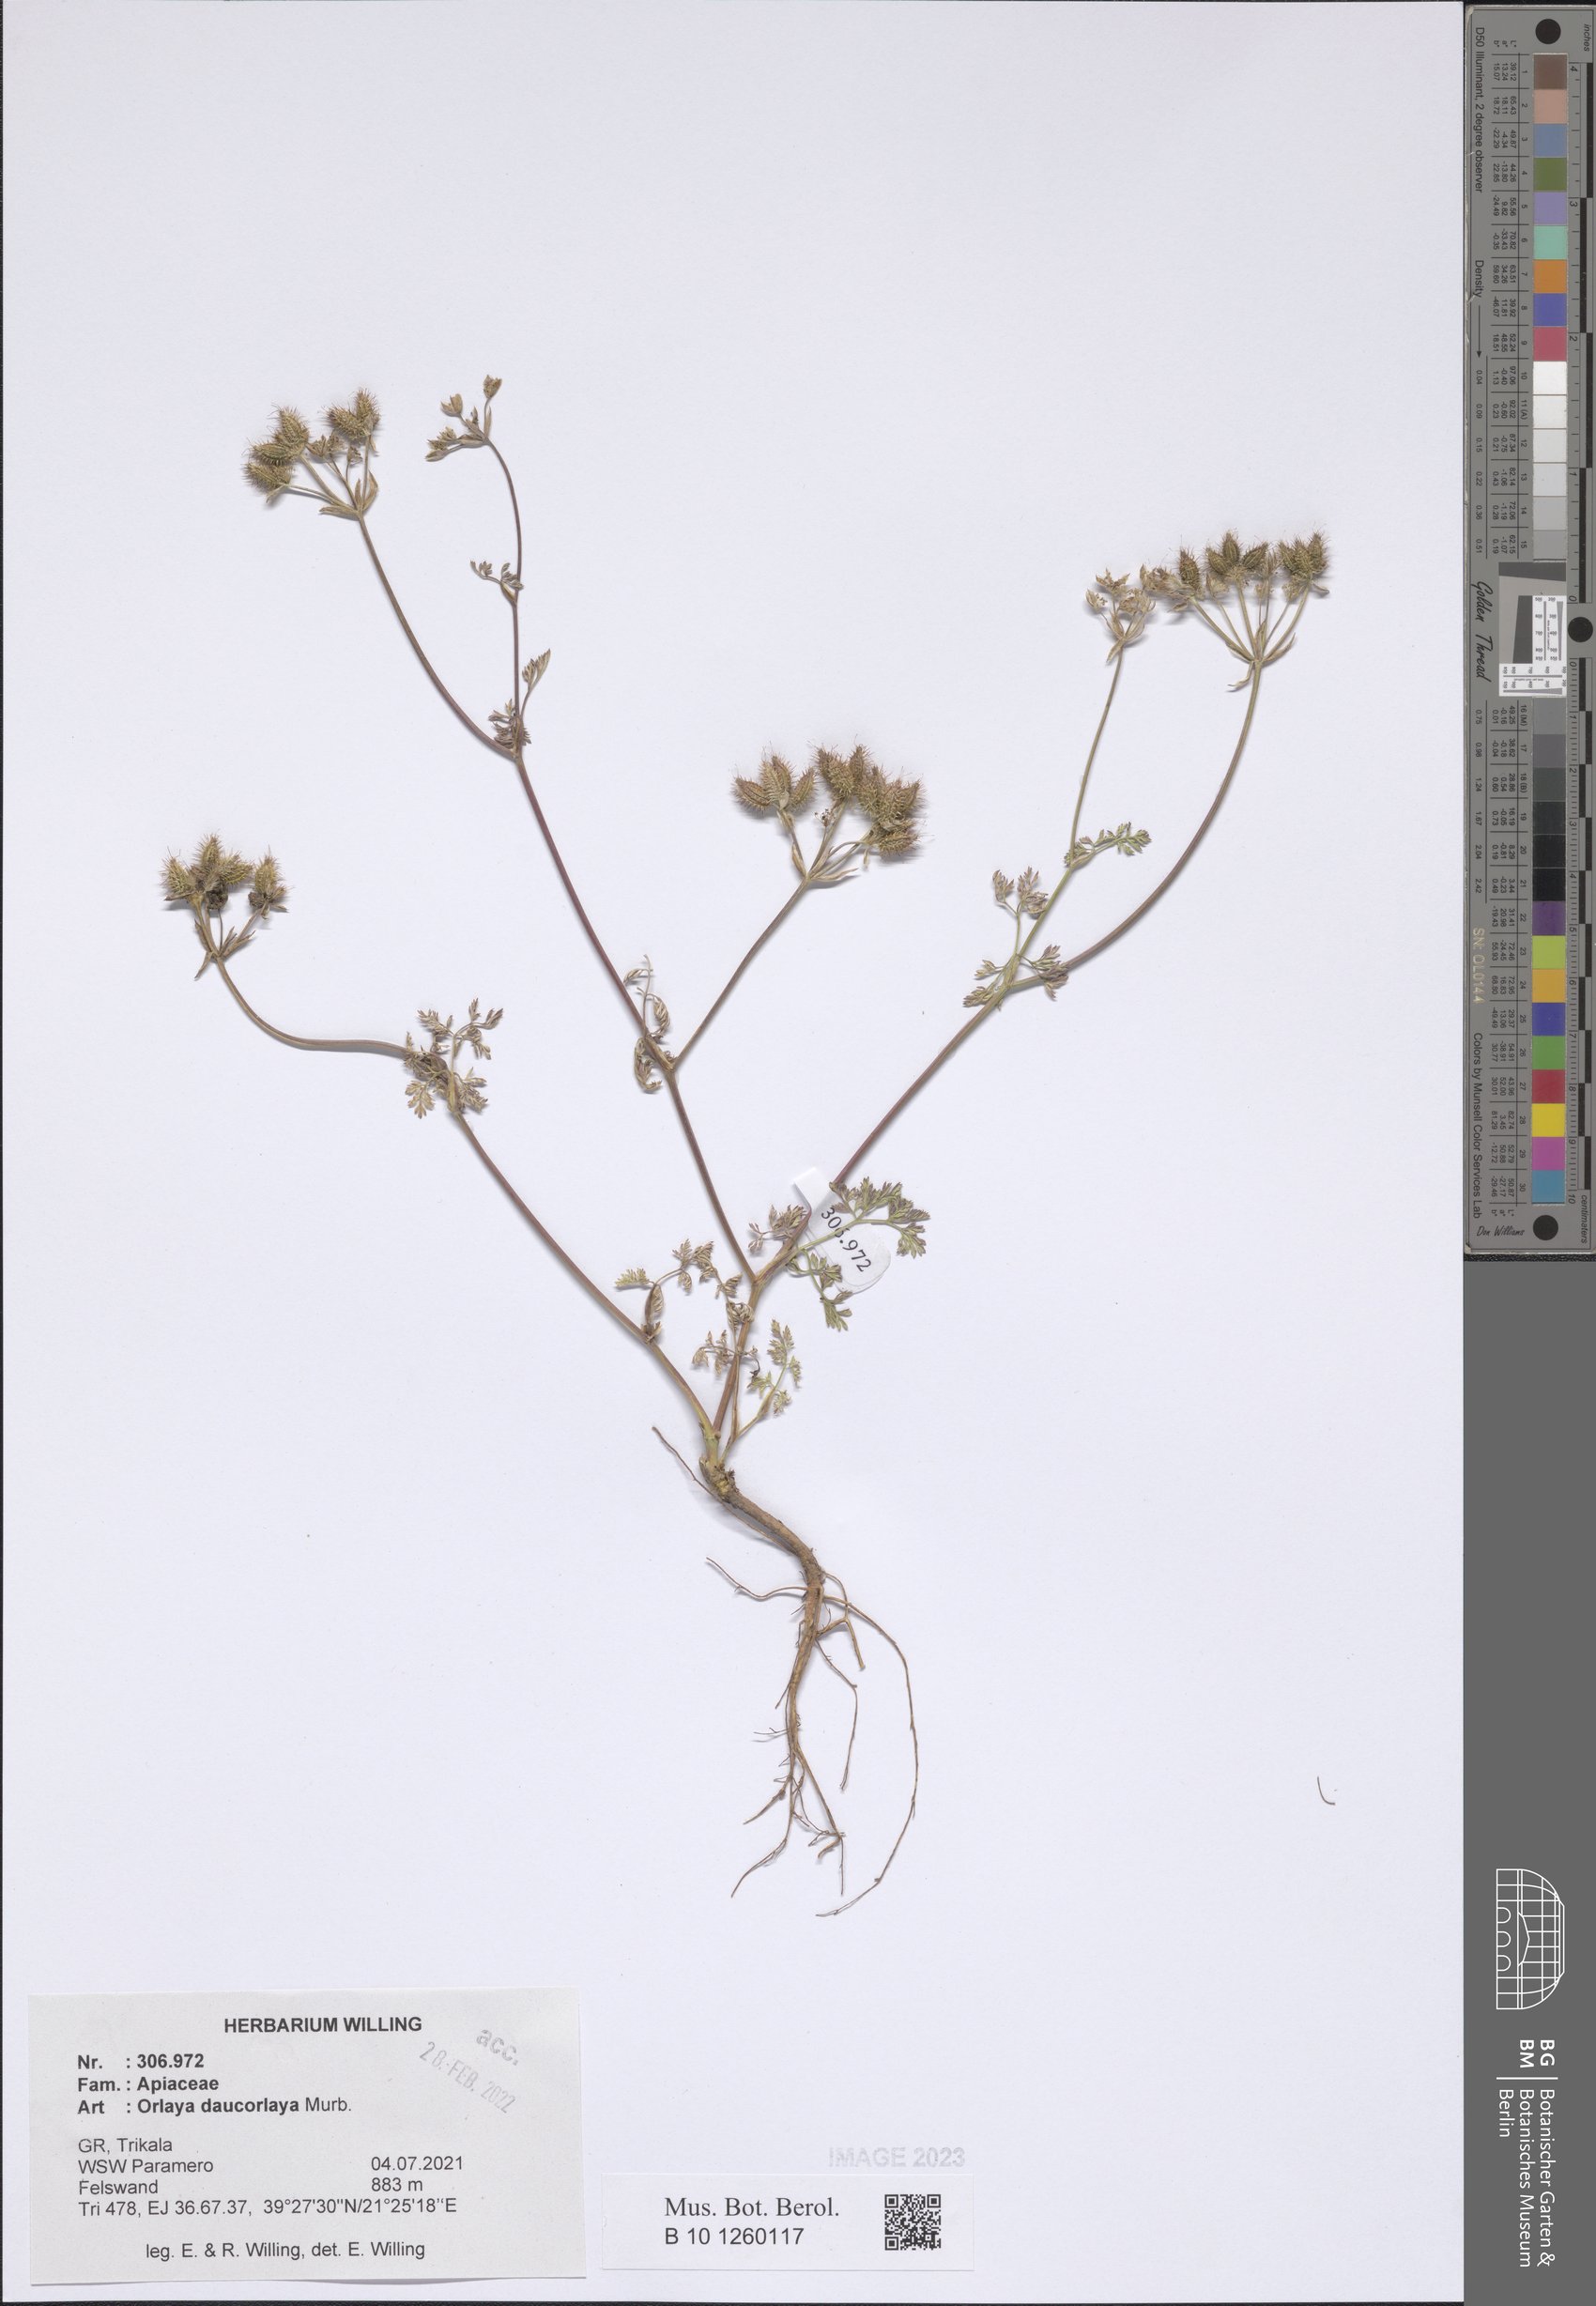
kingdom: Plantae
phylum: Tracheophyta
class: Magnoliopsida
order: Apiales
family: Apiaceae
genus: Orlaya
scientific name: Orlaya daucorlaya
